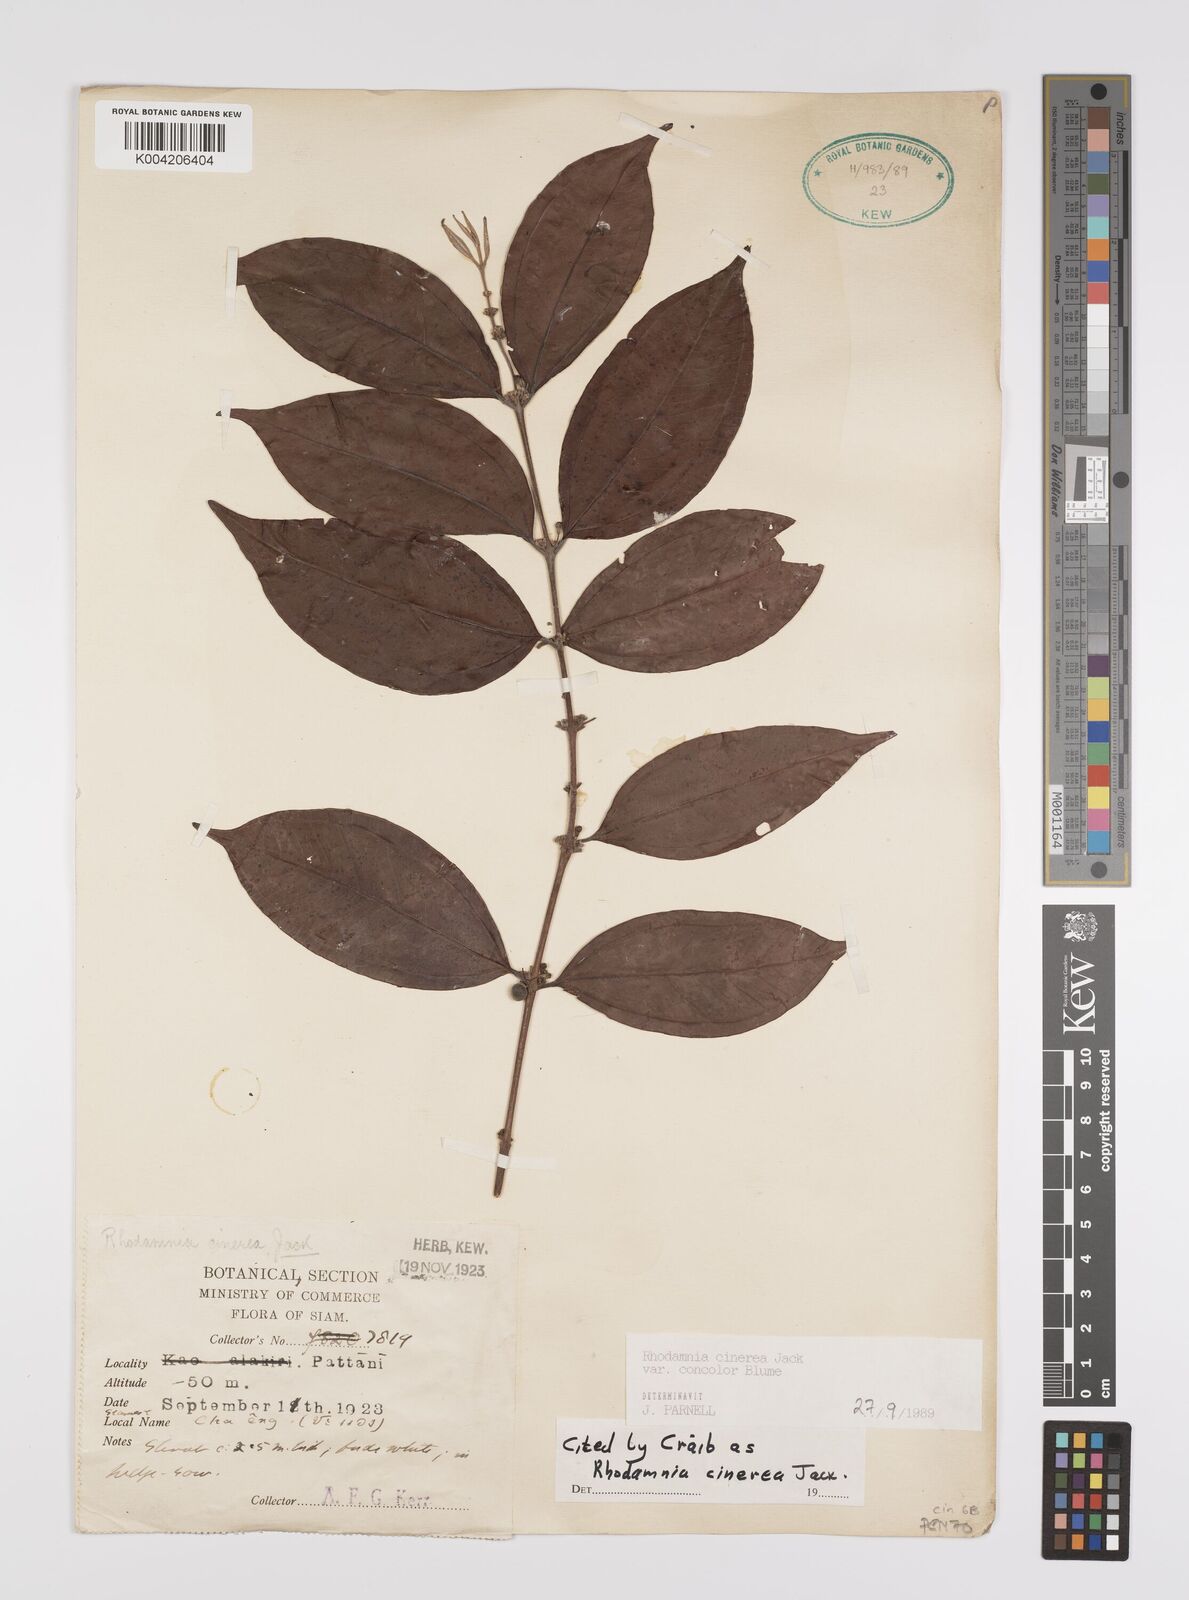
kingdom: Plantae
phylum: Tracheophyta
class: Magnoliopsida
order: Myrtales
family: Myrtaceae
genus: Rhodamnia
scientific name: Rhodamnia cinerea
